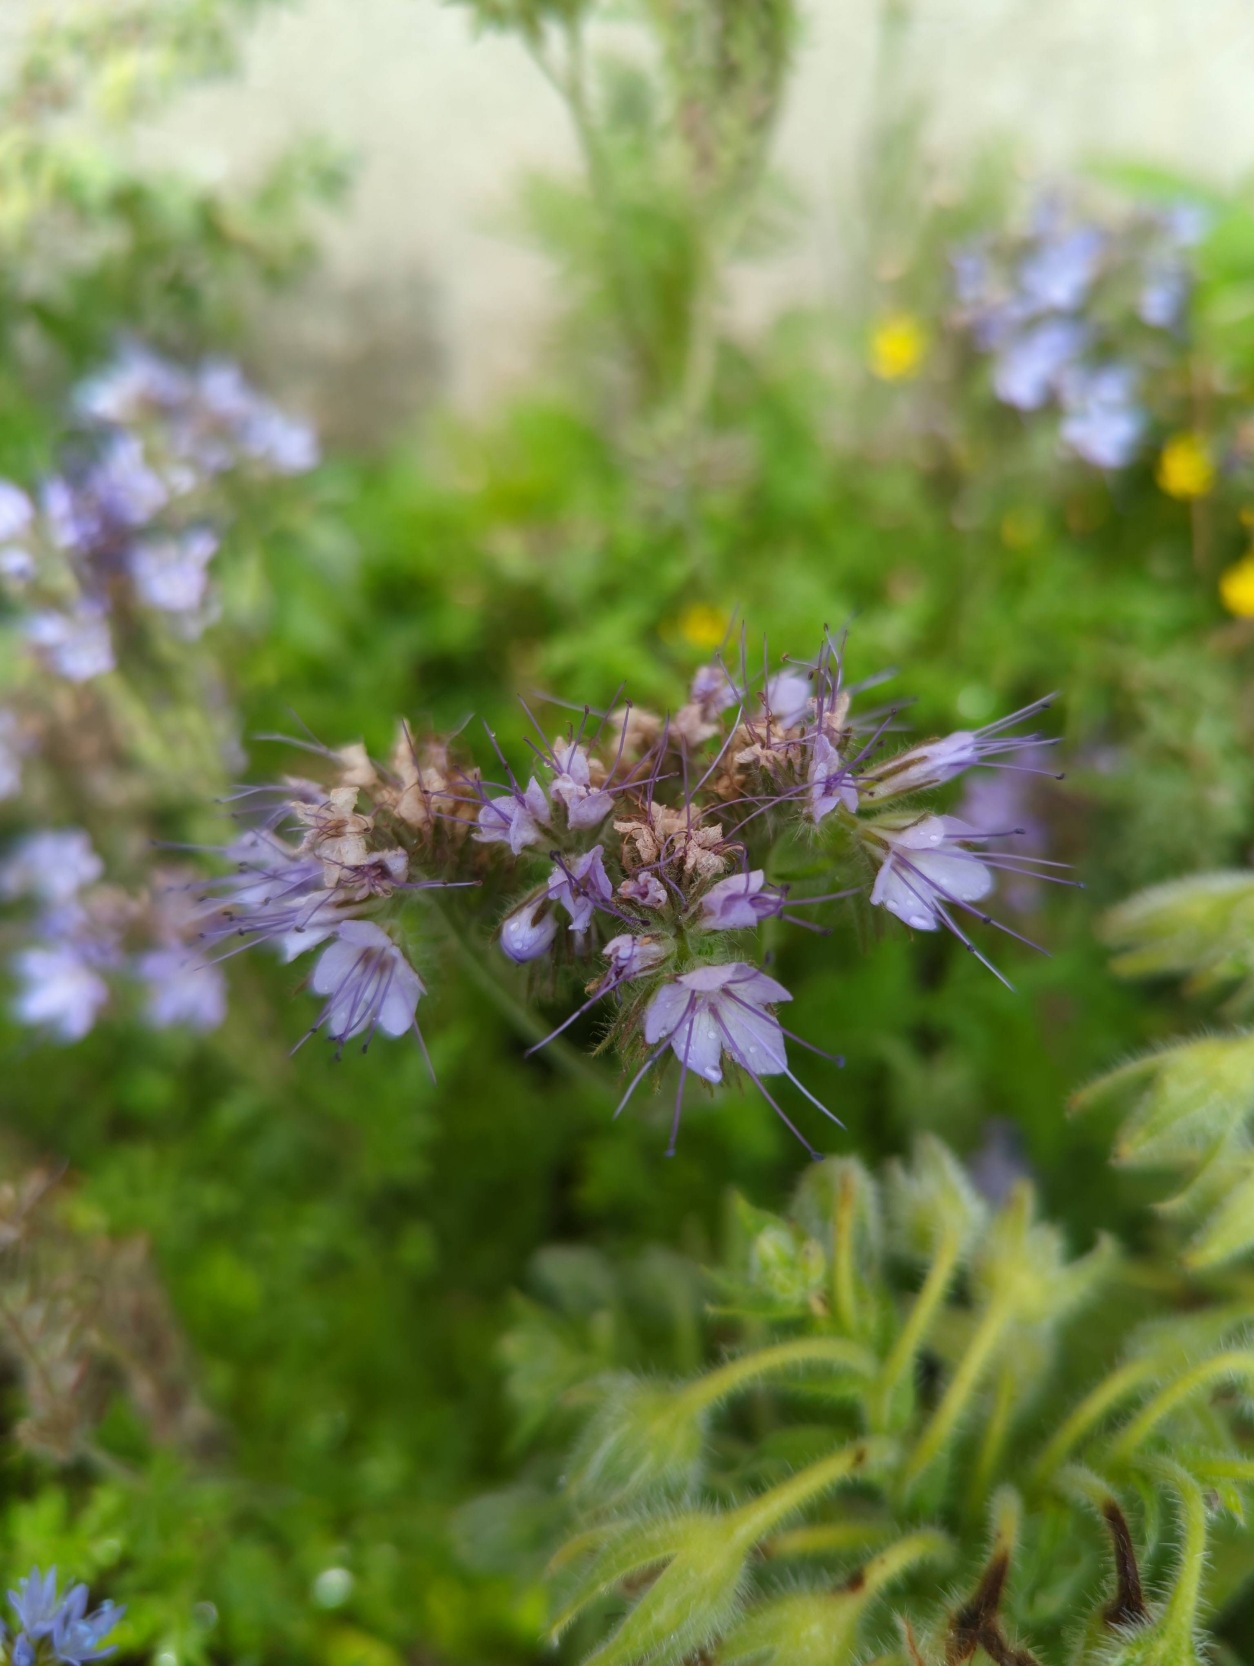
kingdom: Plantae
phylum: Tracheophyta
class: Magnoliopsida
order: Boraginales
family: Hydrophyllaceae
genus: Phacelia
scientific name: Phacelia tanacetifolia
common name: Honningurt
